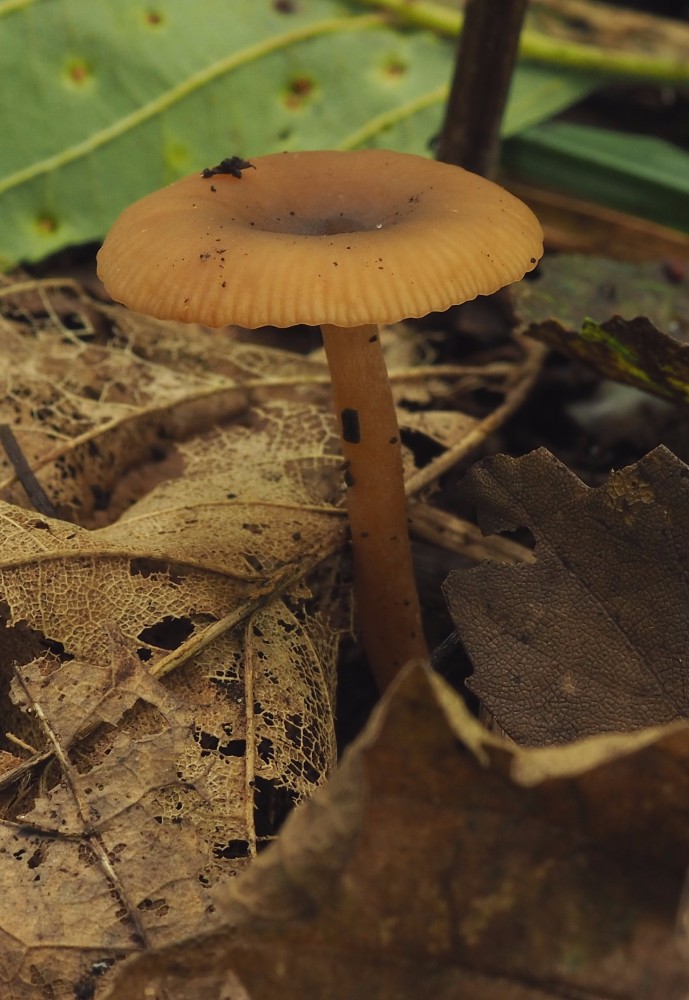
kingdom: Fungi
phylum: Basidiomycota
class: Agaricomycetes
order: Russulales
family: Russulaceae
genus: Lactarius
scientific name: Lactarius obscuratus
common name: elle-mælkehat
